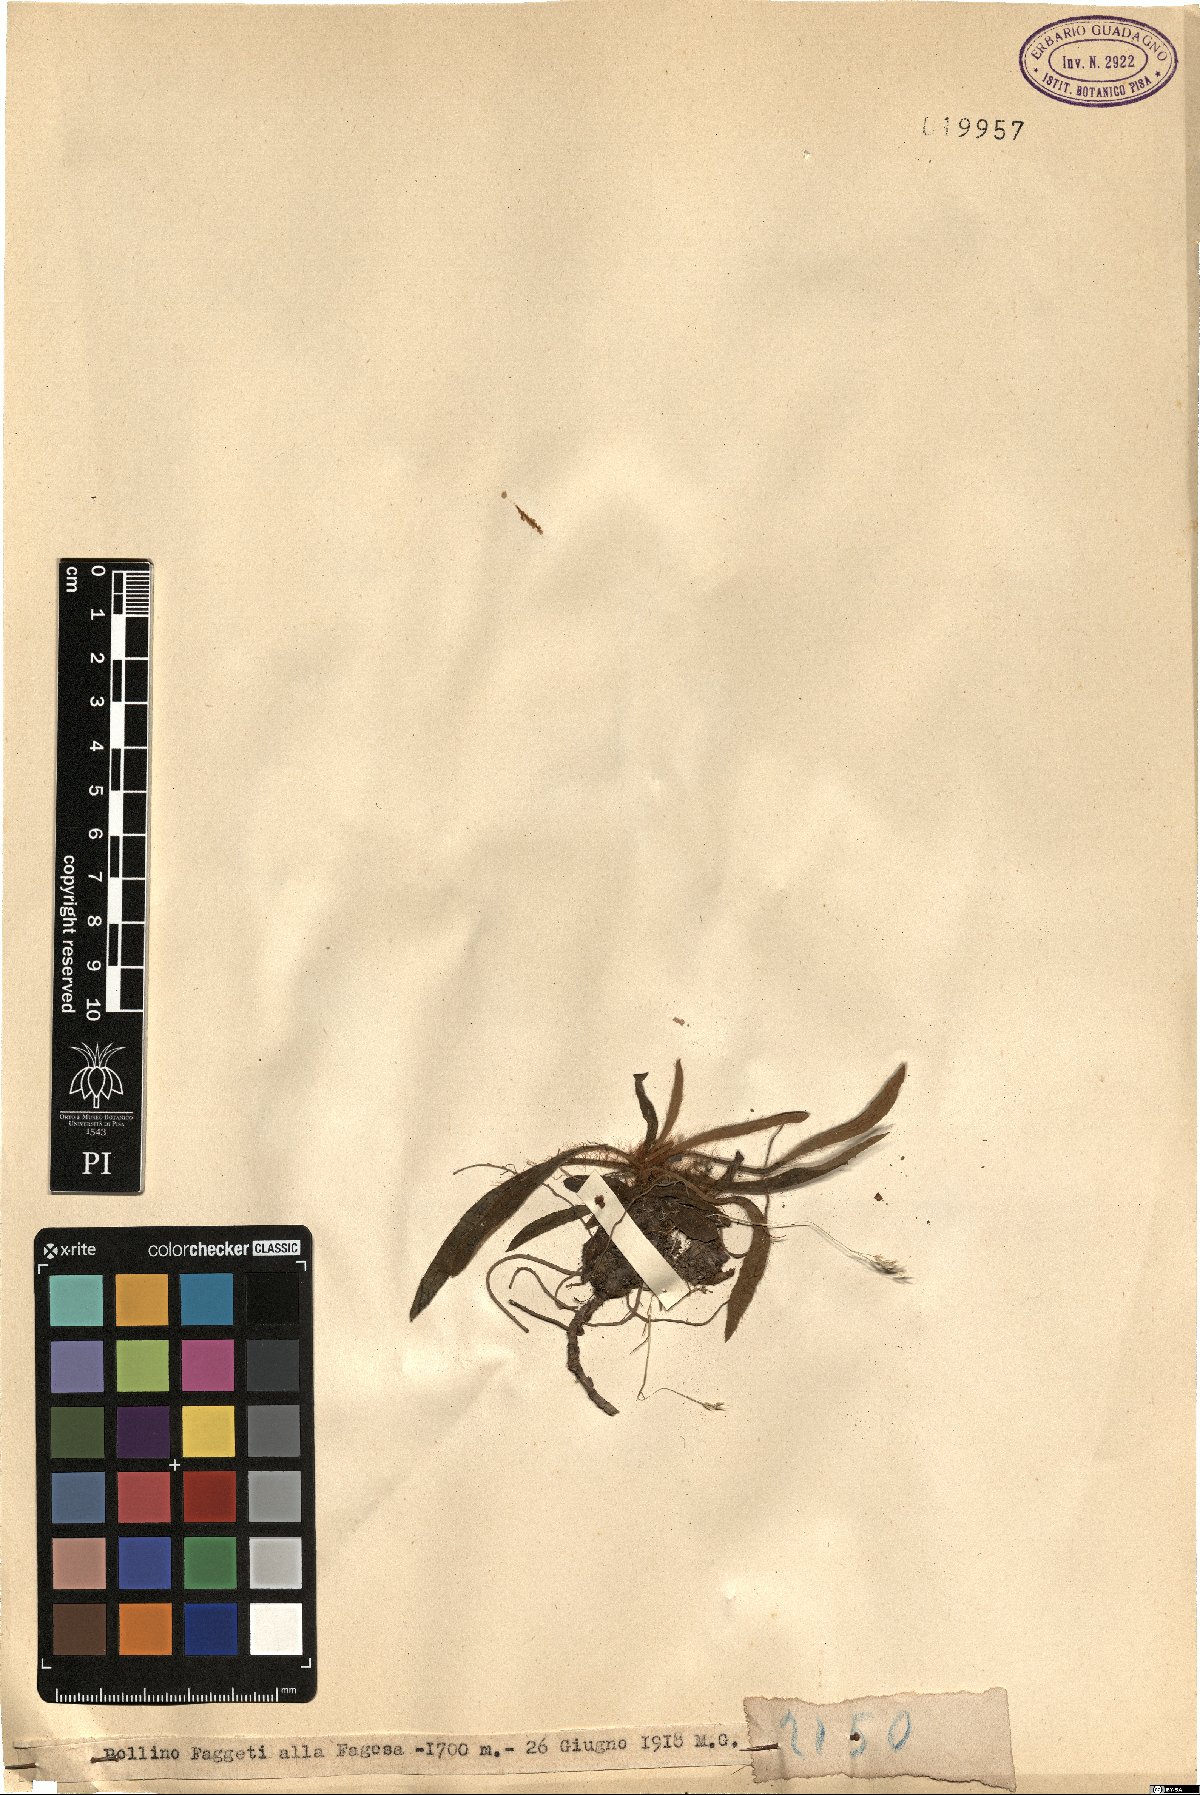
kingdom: Plantae
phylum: Tracheophyta
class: Magnoliopsida
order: Asterales
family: Asteraceae
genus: Hieracium
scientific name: Hieracium
